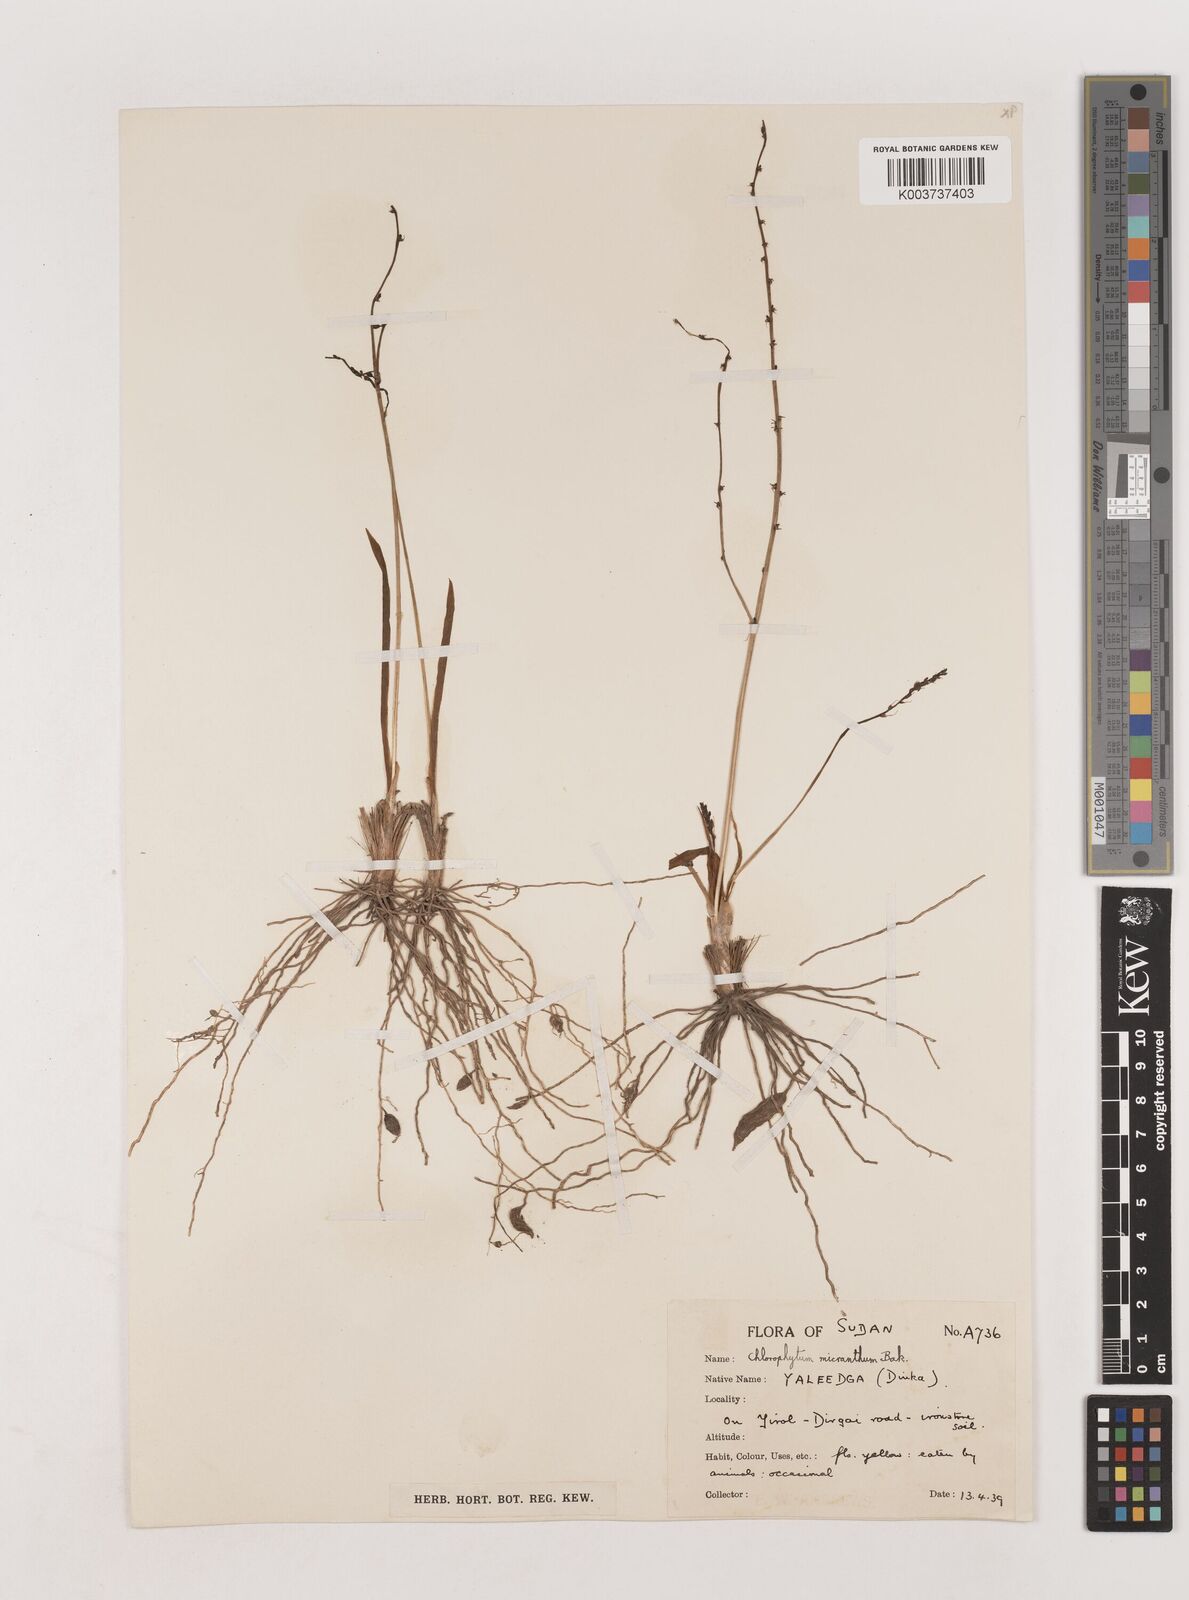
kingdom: Plantae
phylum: Tracheophyta
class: Liliopsida
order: Asparagales
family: Asparagaceae
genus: Chlorophytum
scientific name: Chlorophytum gallabatense
